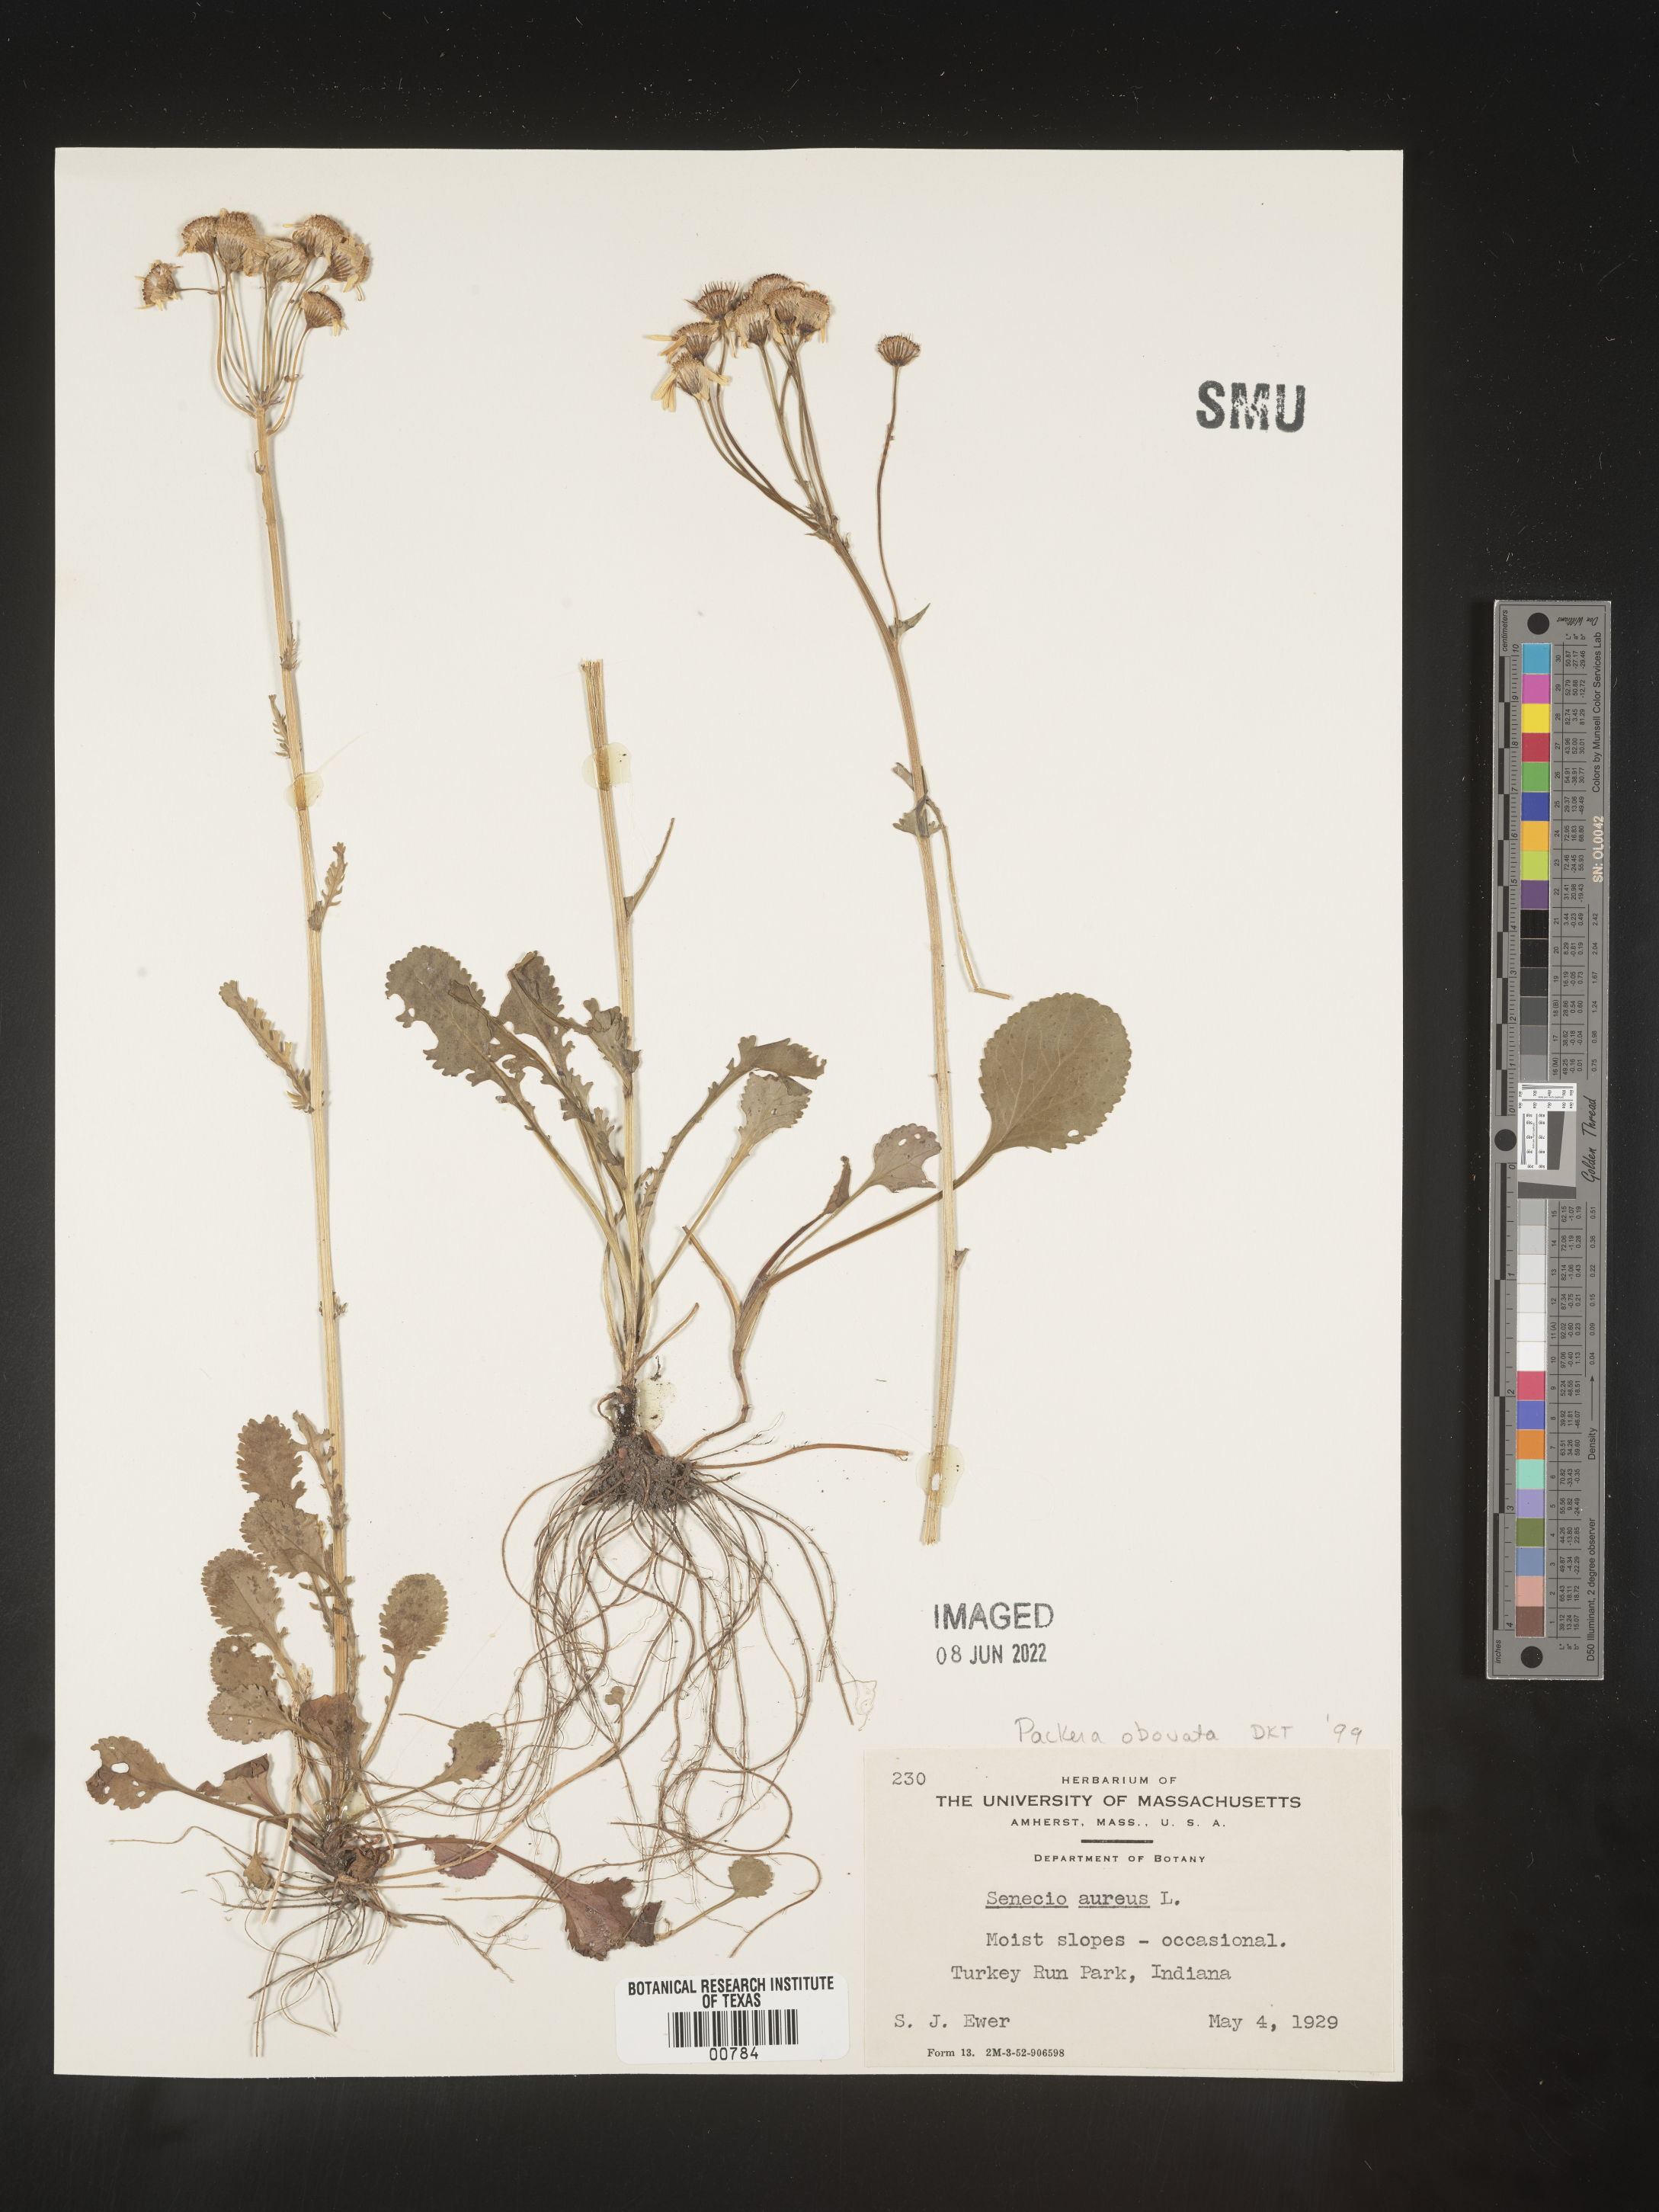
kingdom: Plantae
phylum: Tracheophyta
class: Magnoliopsida
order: Asterales
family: Asteraceae
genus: Packera
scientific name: Packera obovata
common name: Round-leaf ragwort
